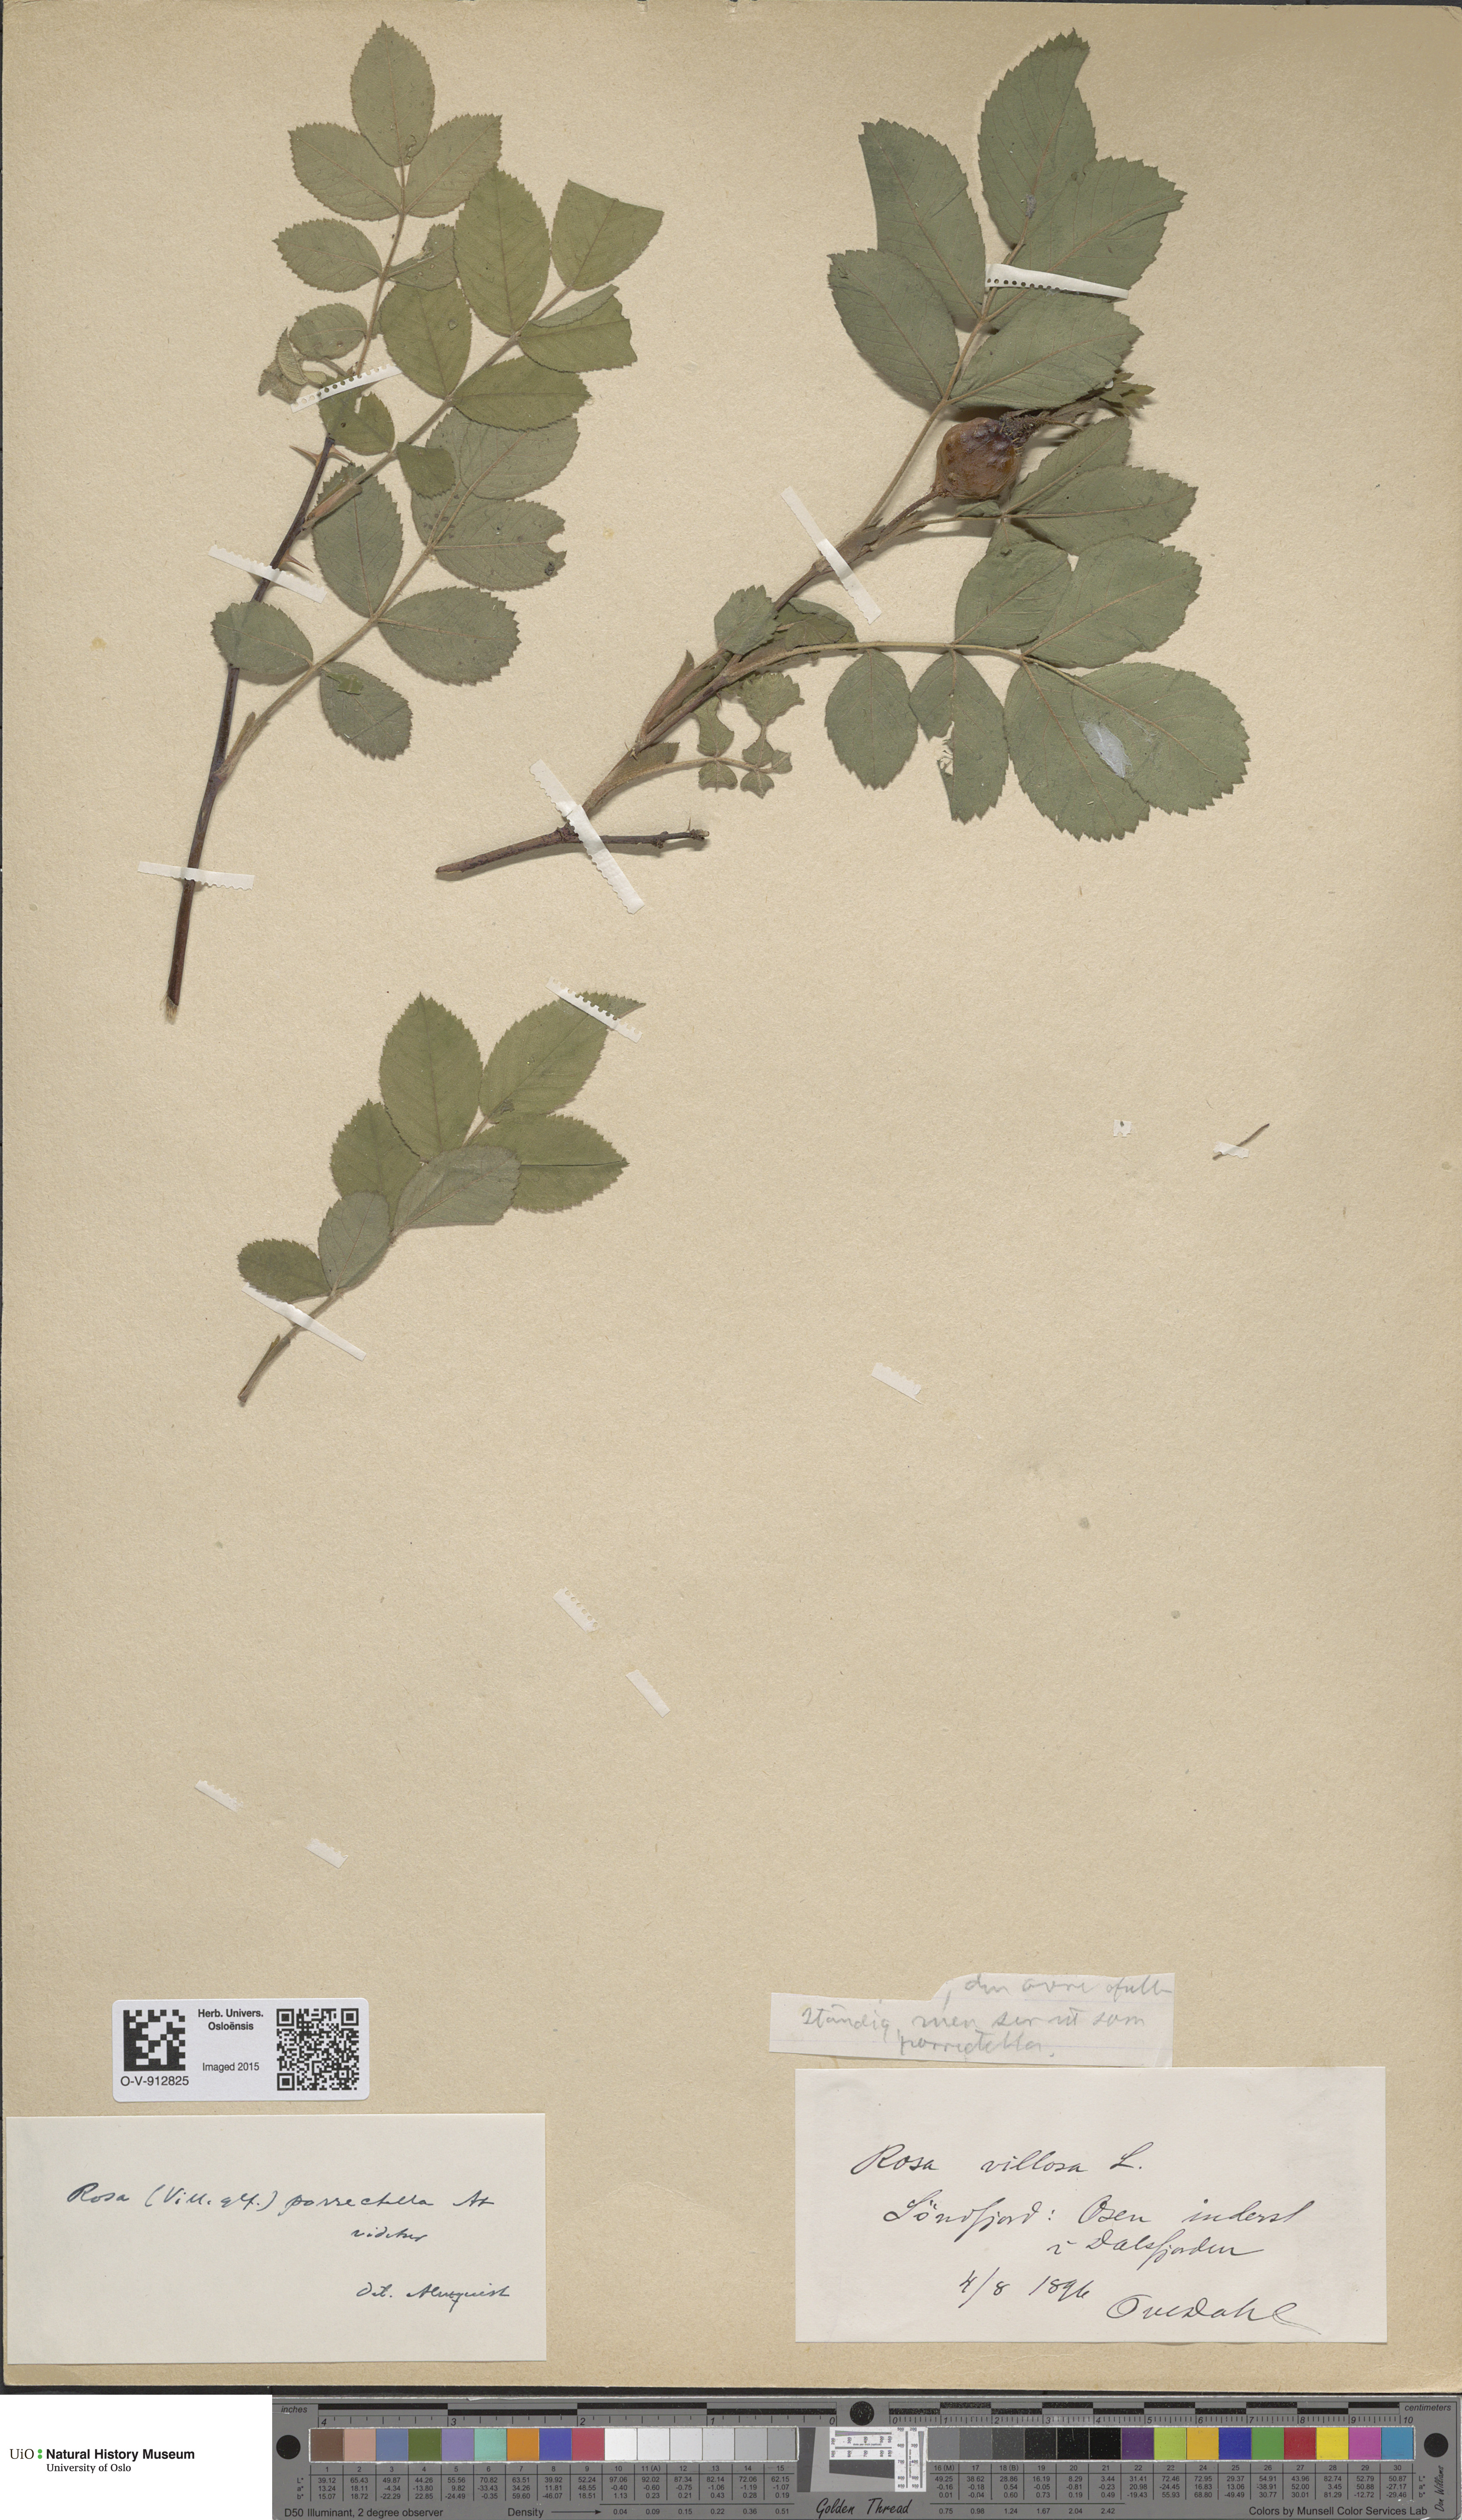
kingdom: Plantae
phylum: Tracheophyta
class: Magnoliopsida
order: Rosales
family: Rosaceae
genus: Rosa
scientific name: Rosa mollis
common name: Rose
